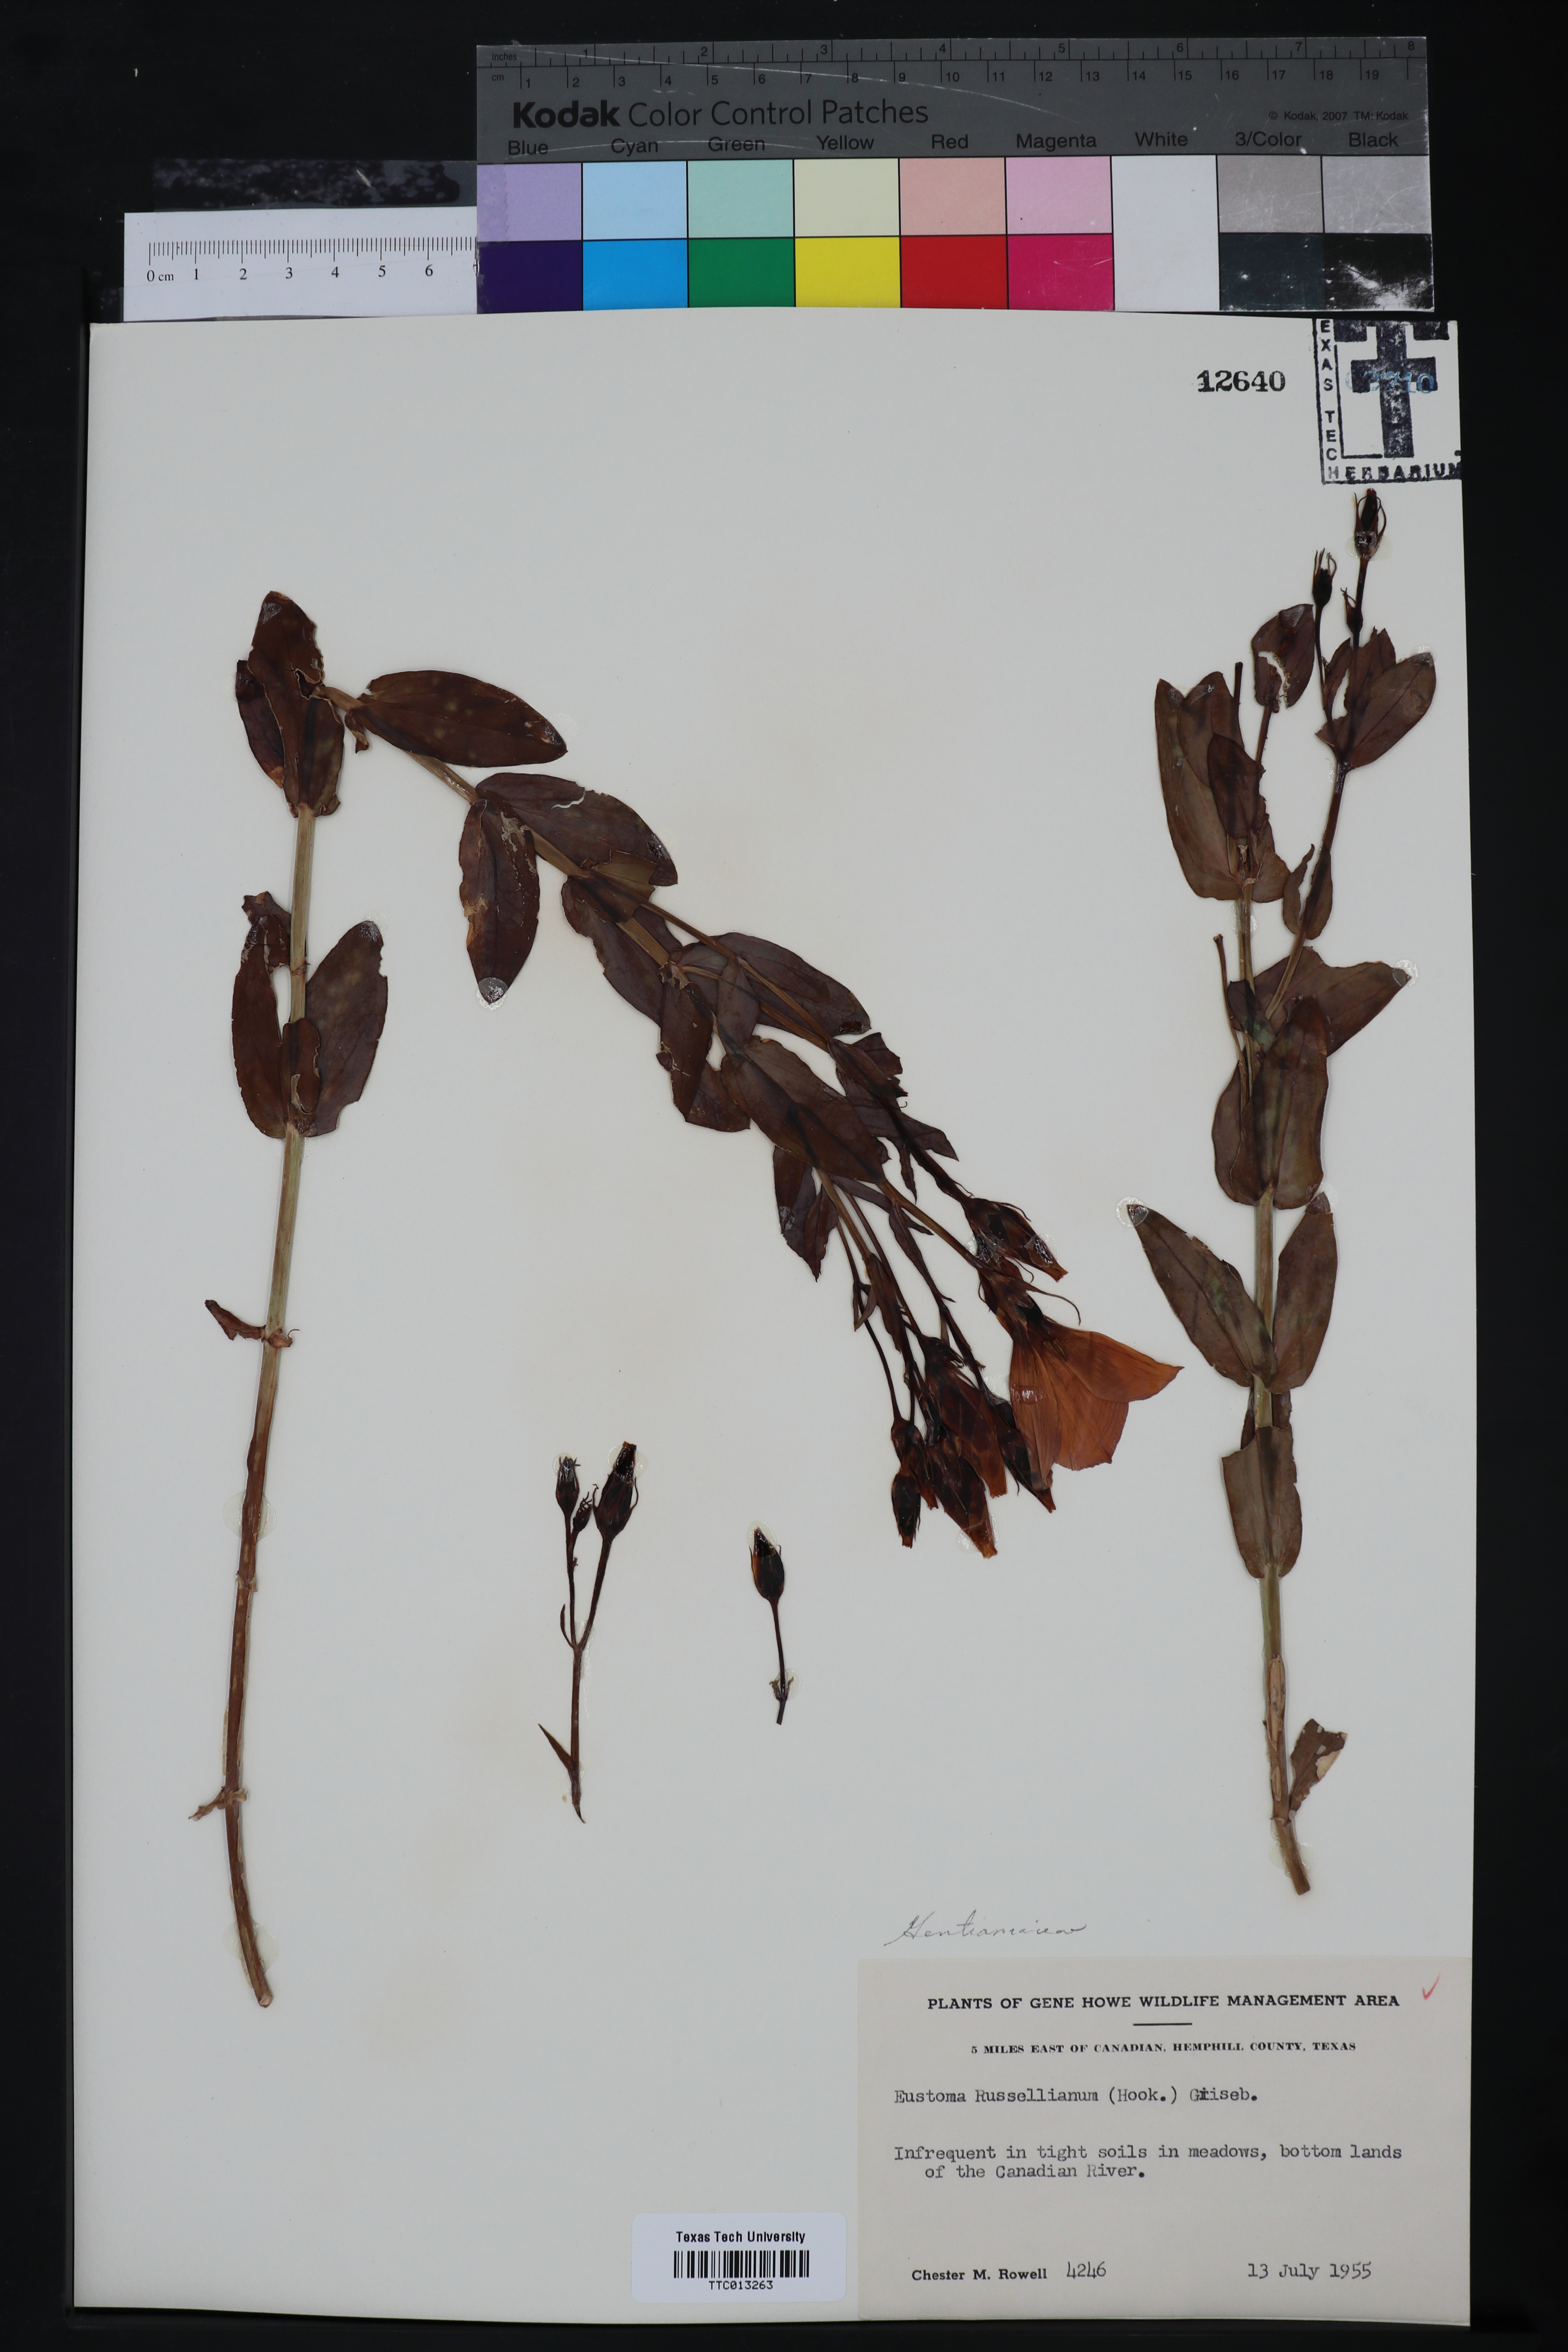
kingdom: Plantae
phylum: Tracheophyta
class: Magnoliopsida
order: Gentianales
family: Gentianaceae
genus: Eustoma
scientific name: Eustoma russellianum
